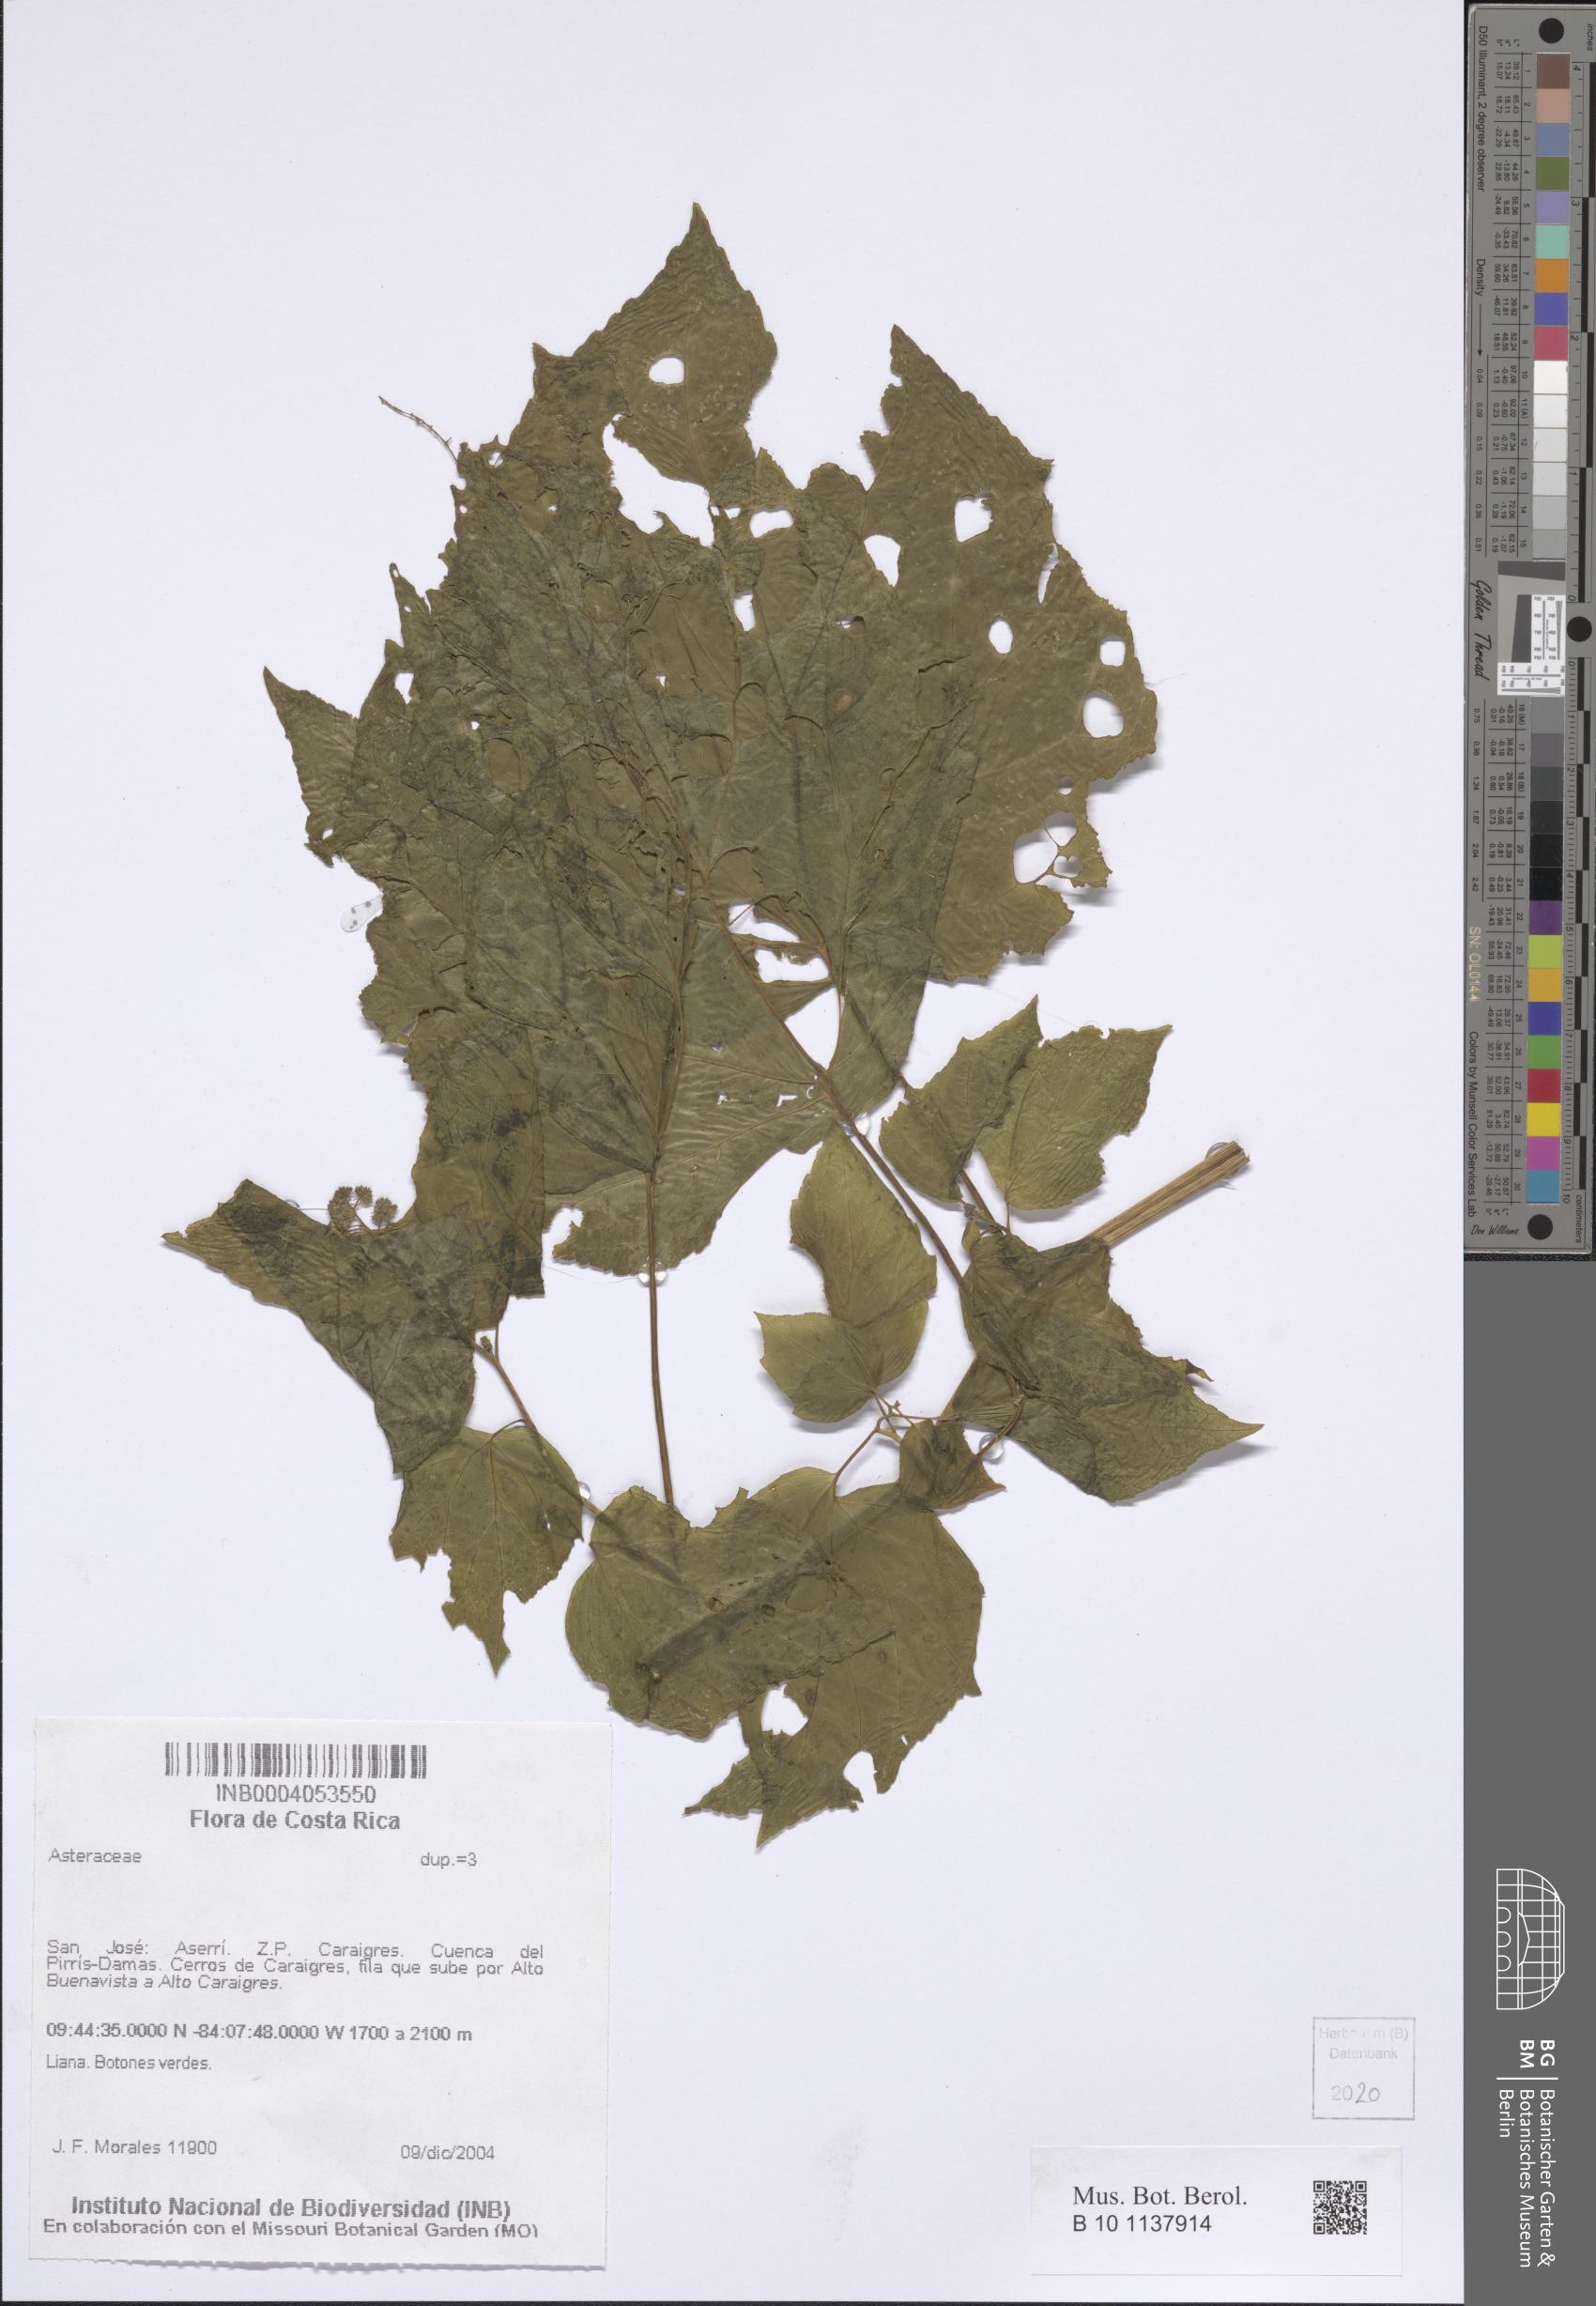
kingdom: Plantae
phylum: Tracheophyta
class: Magnoliopsida
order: Asterales
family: Asteraceae
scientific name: Asteraceae
